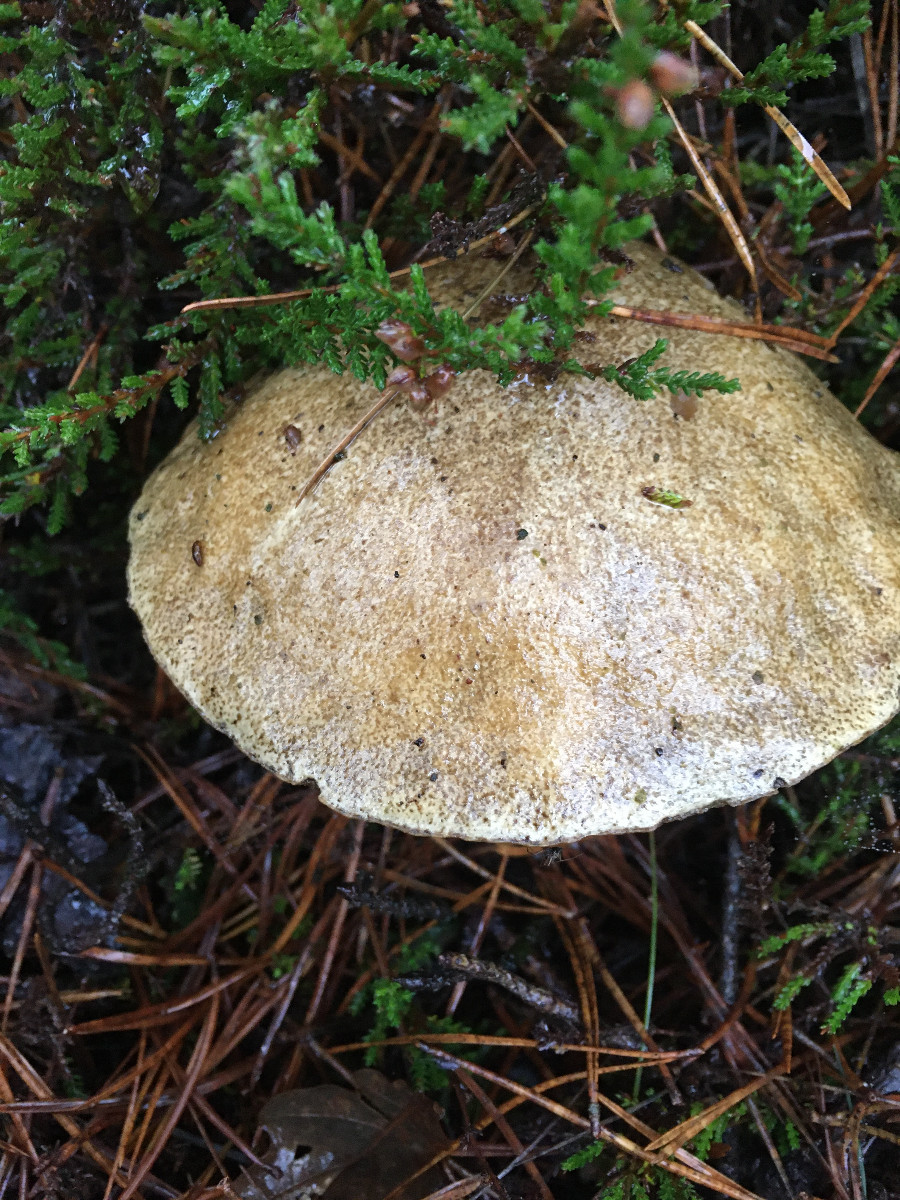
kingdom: Fungi
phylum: Basidiomycota
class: Agaricomycetes
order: Boletales
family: Suillaceae
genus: Suillus
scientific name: Suillus bovinus
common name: grovporet slimrørhat
